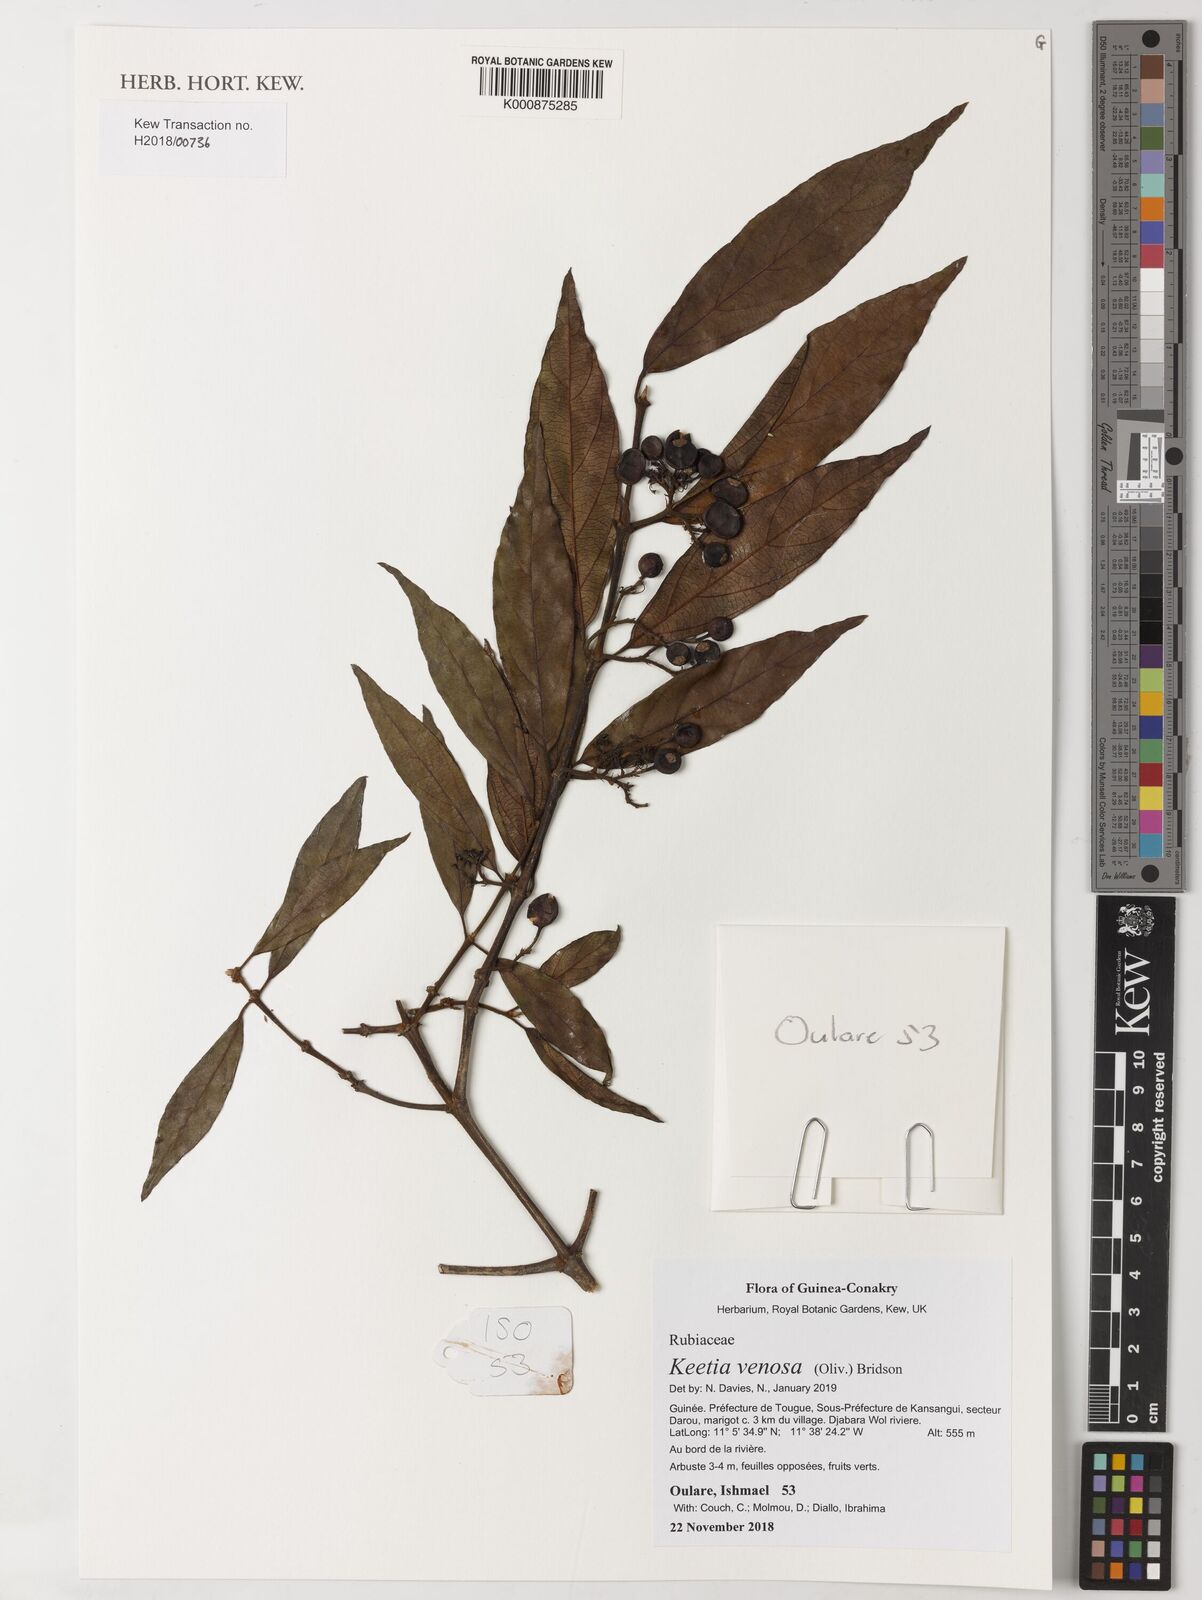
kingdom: Plantae
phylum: Tracheophyta
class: Magnoliopsida
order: Gentianales
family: Rubiaceae
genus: Keetia
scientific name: Keetia venosa
